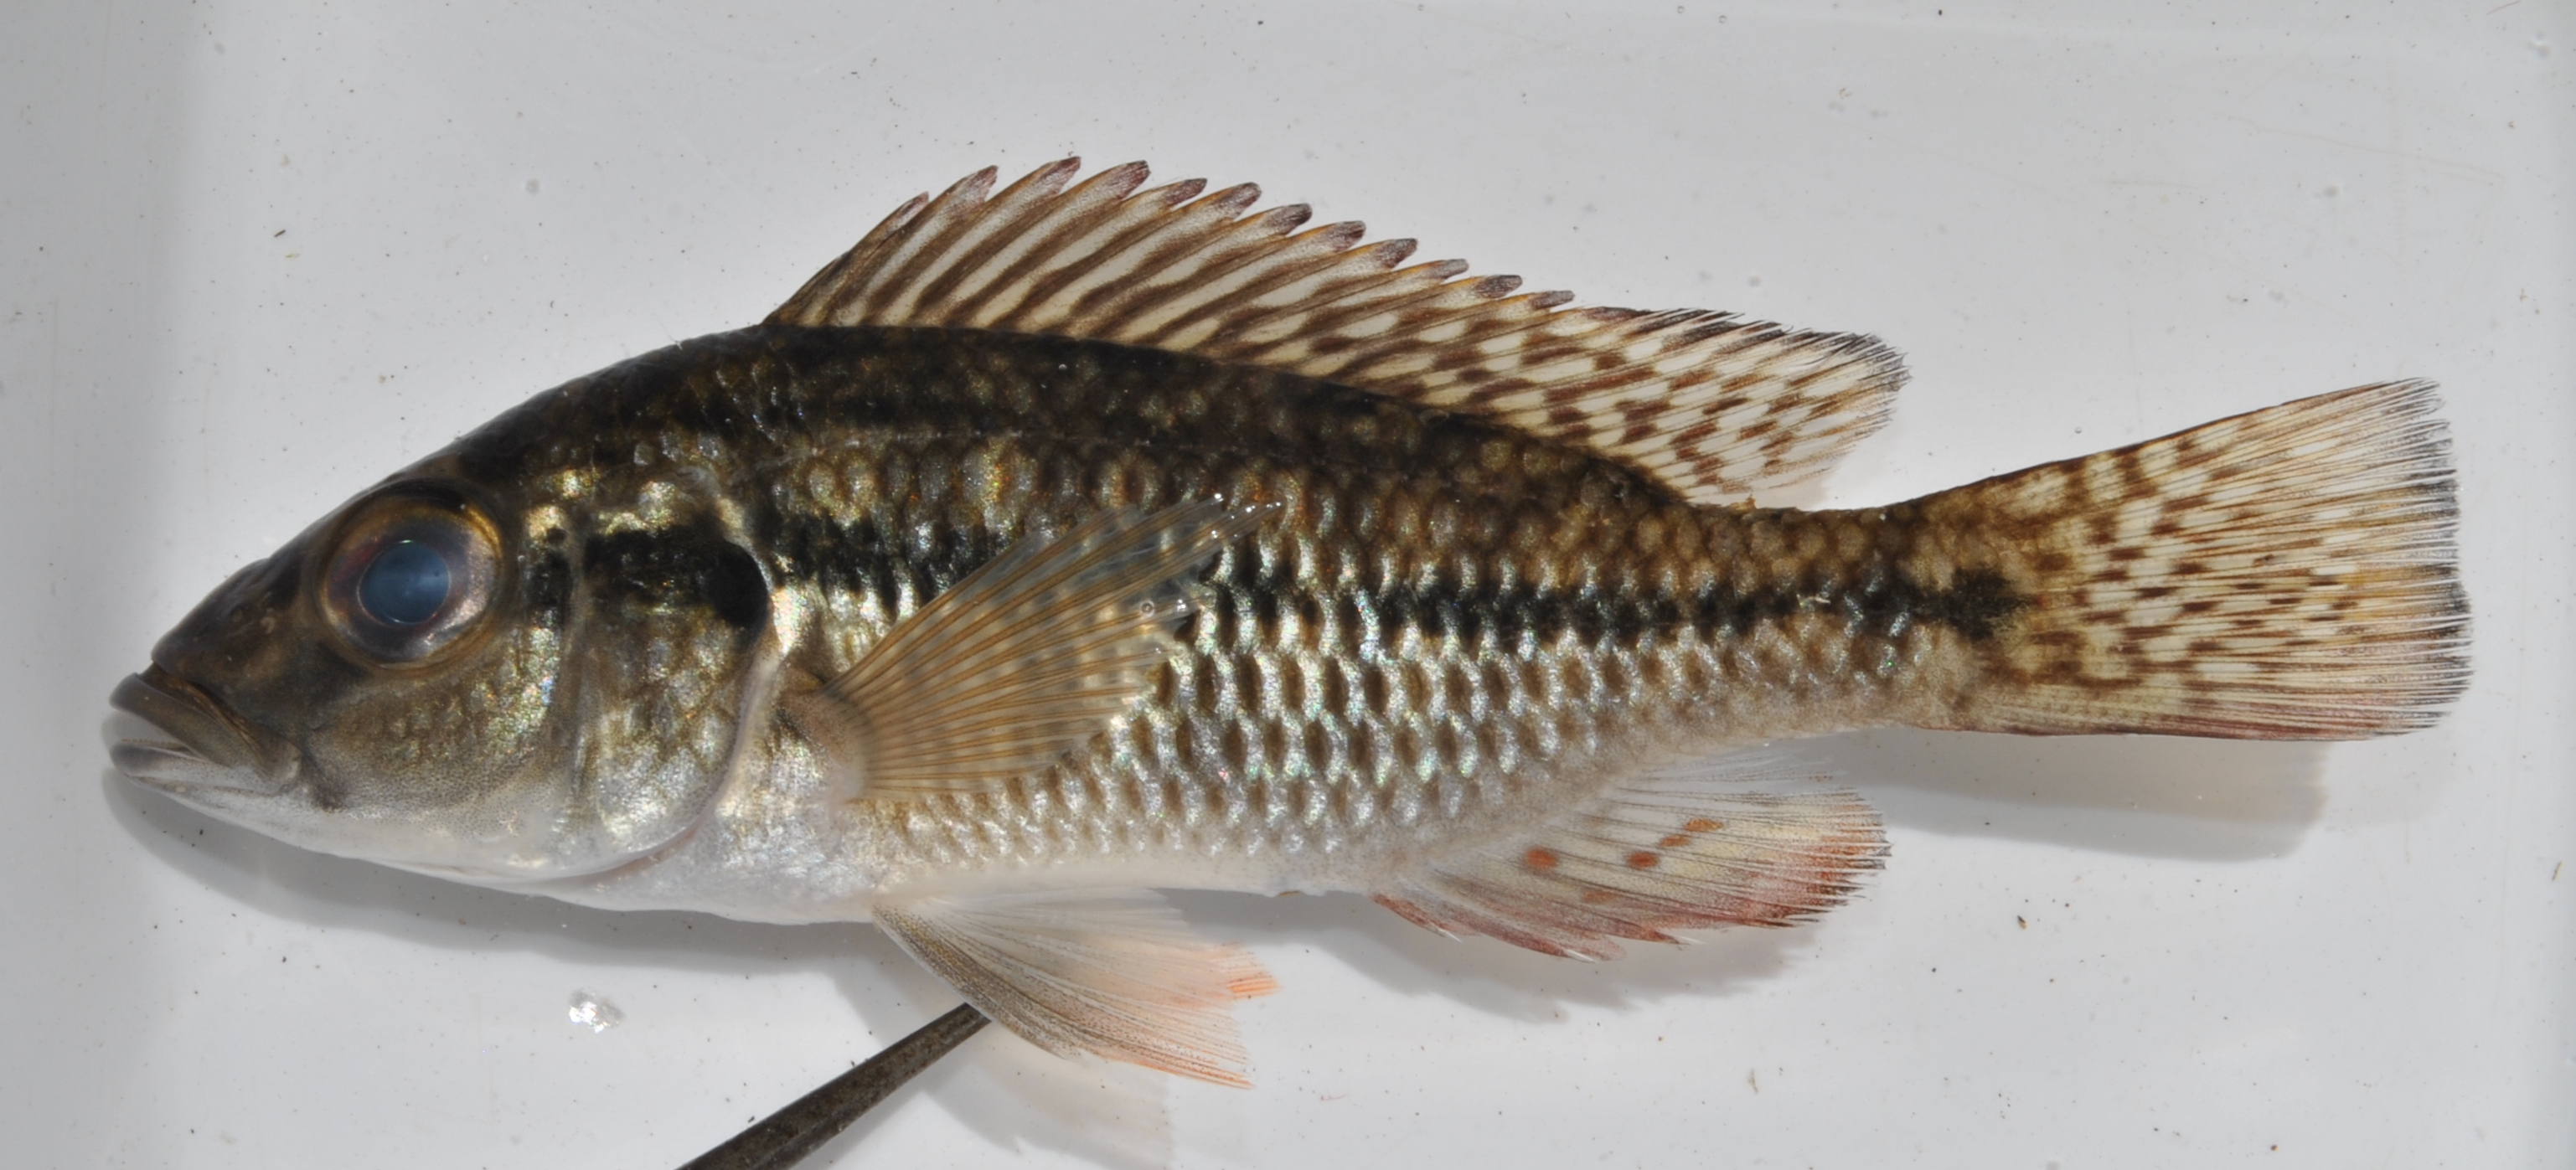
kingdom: Animalia
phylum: Chordata
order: Perciformes
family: Cichlidae
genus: Pharyngochromis
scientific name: Pharyngochromis acuticeps
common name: Zambezi happy
